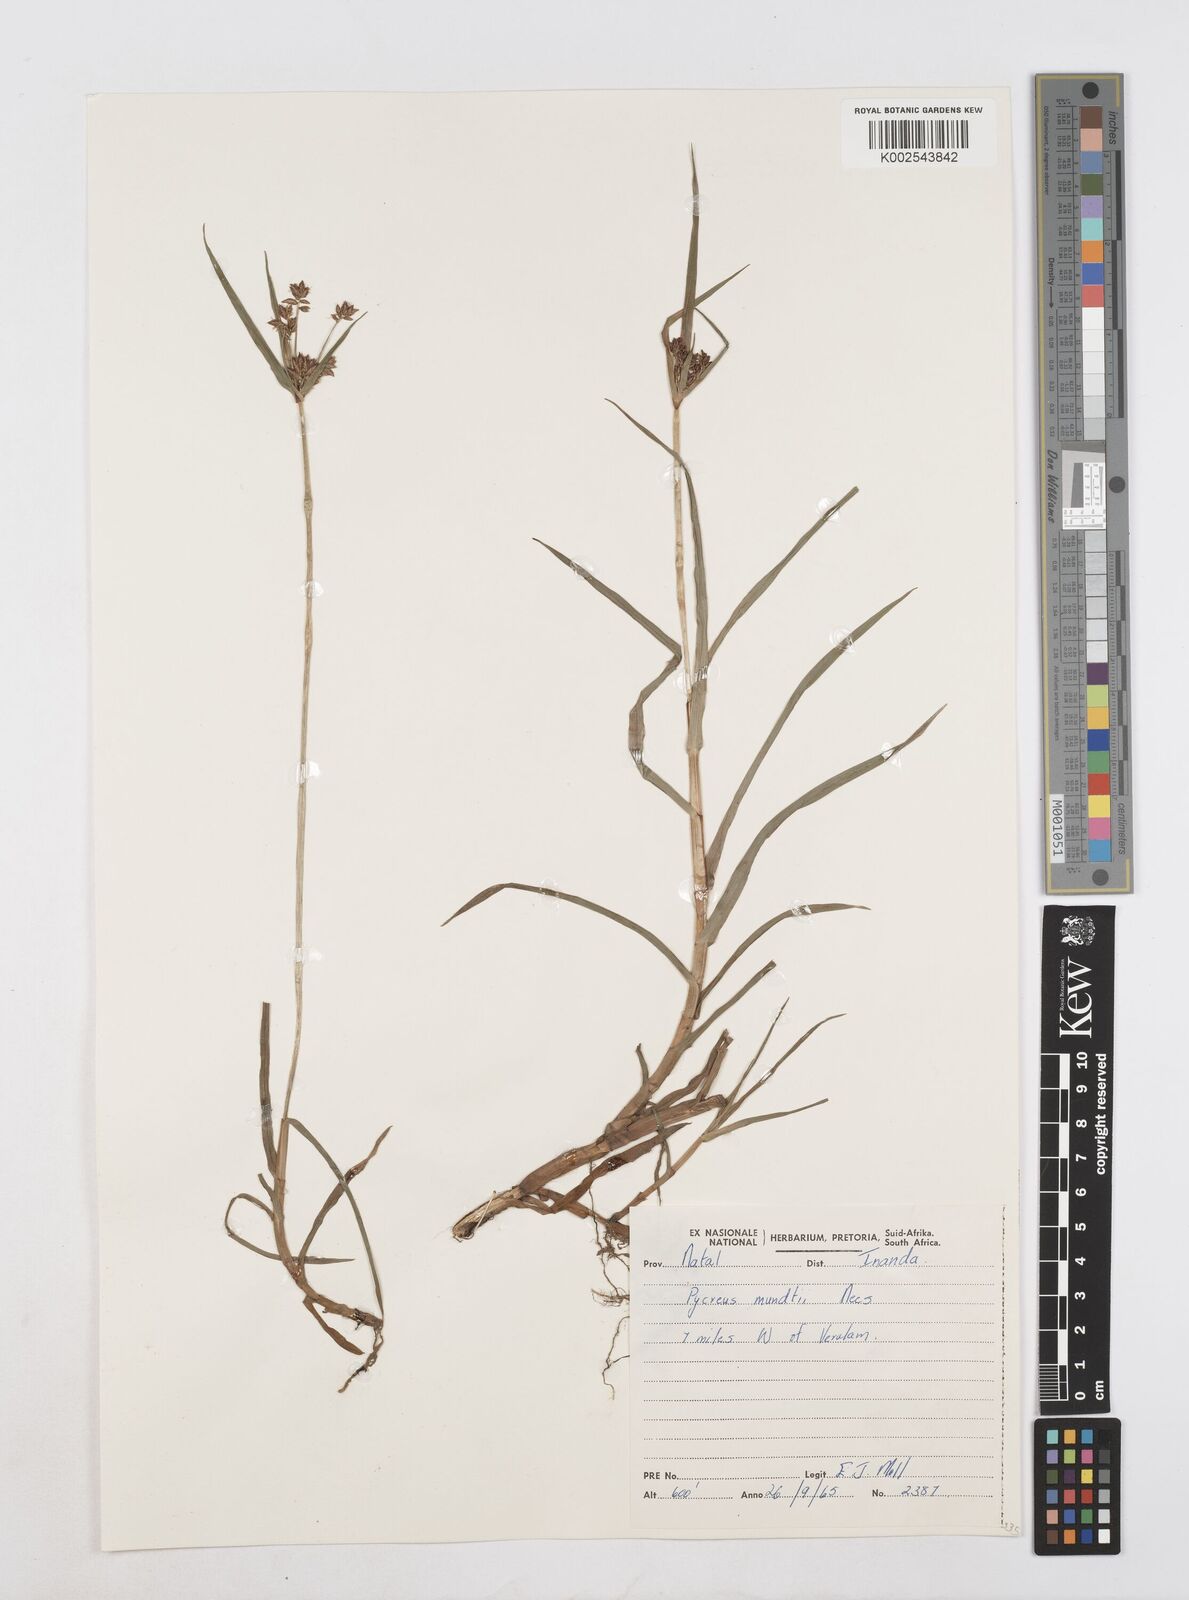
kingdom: Plantae
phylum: Tracheophyta
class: Liliopsida
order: Poales
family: Cyperaceae
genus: Cyperus
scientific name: Cyperus mundii
